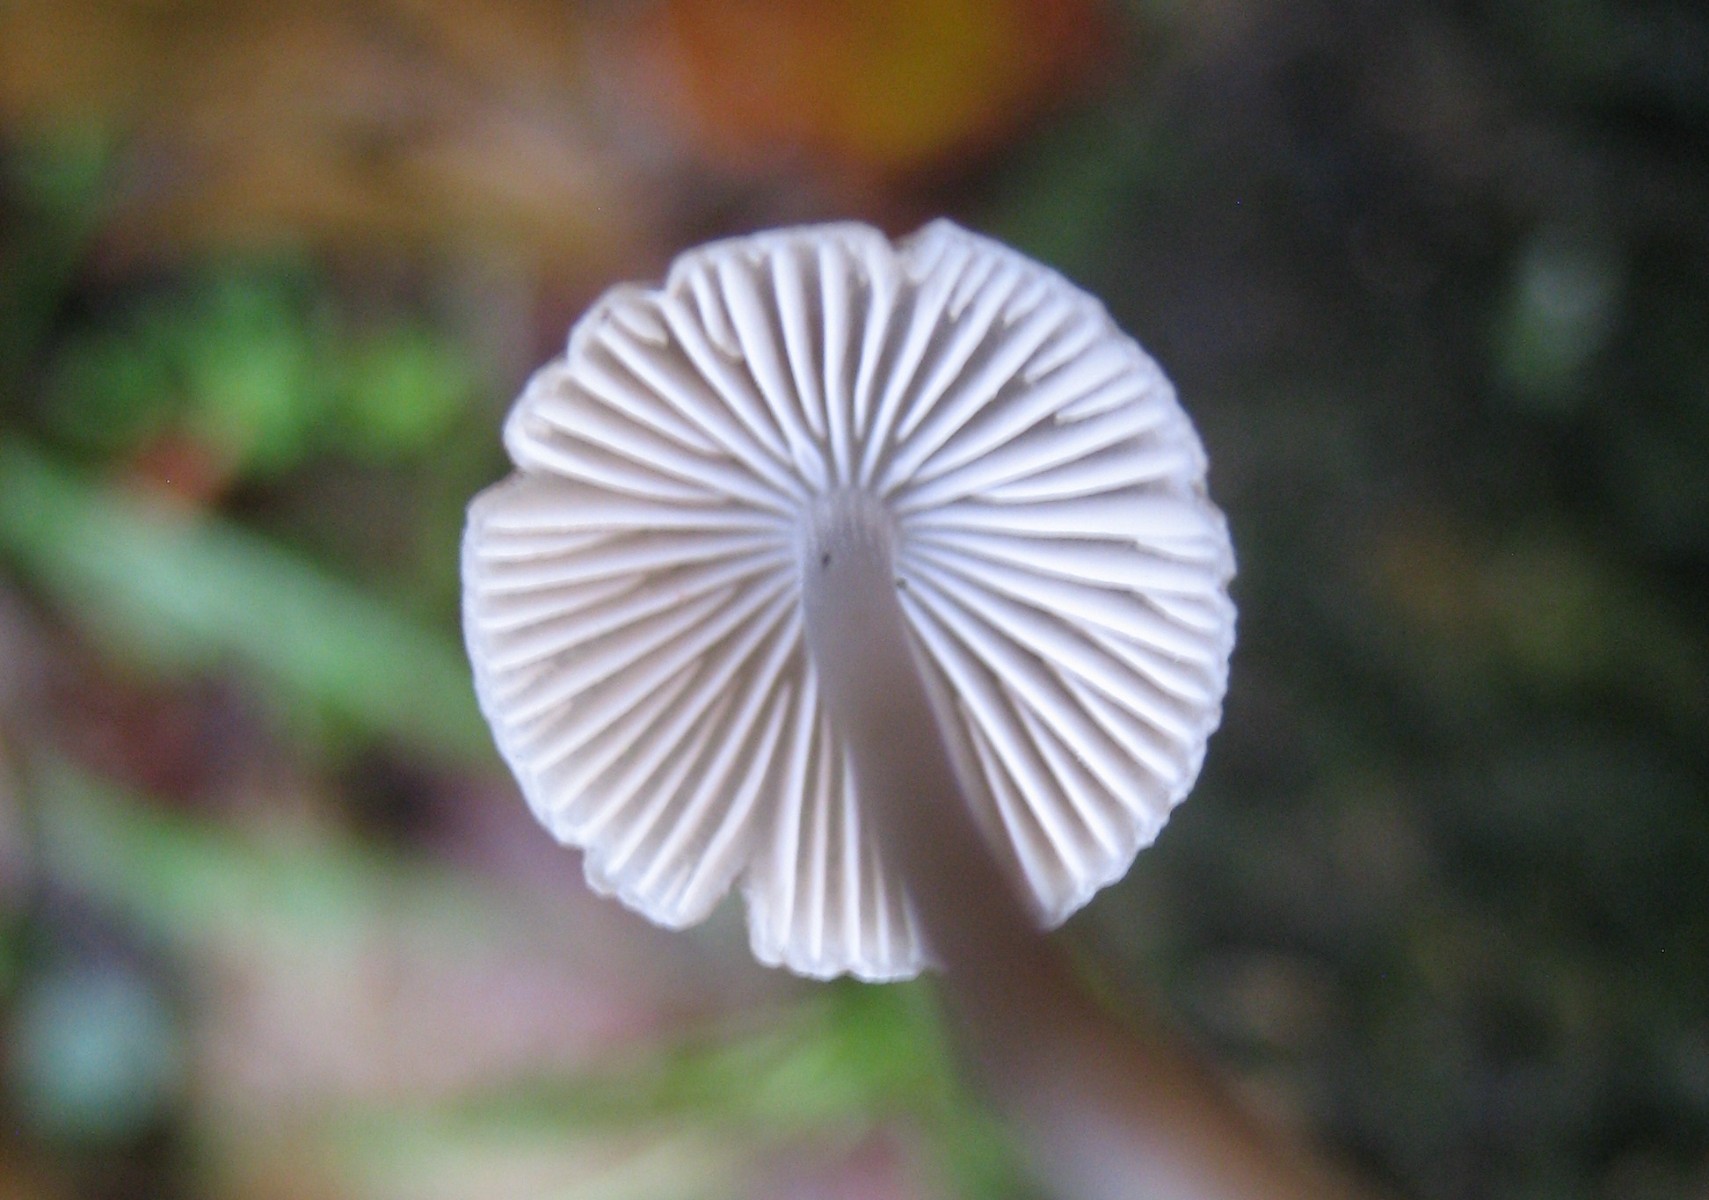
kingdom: Fungi
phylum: Basidiomycota
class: Agaricomycetes
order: Agaricales
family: Mycenaceae
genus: Mycena
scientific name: Mycena
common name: huesvamp
